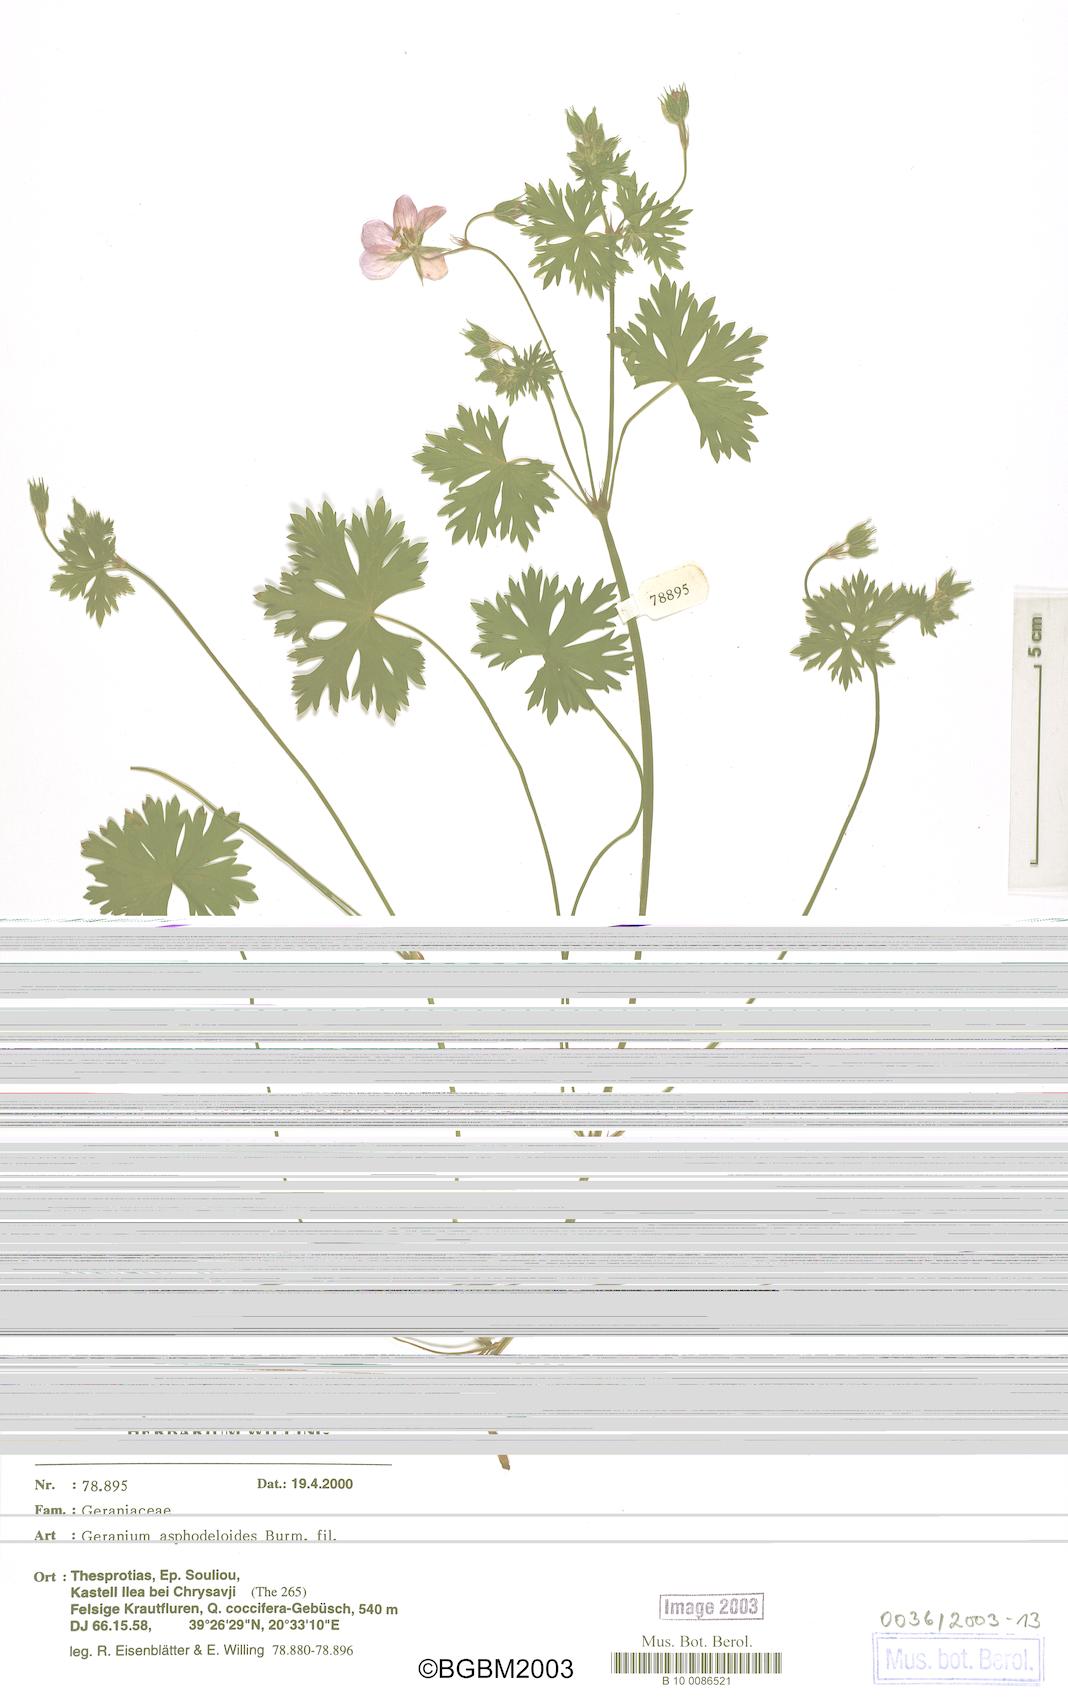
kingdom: Plantae
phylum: Tracheophyta
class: Magnoliopsida
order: Geraniales
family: Geraniaceae
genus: Geranium
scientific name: Geranium asphodeloides
